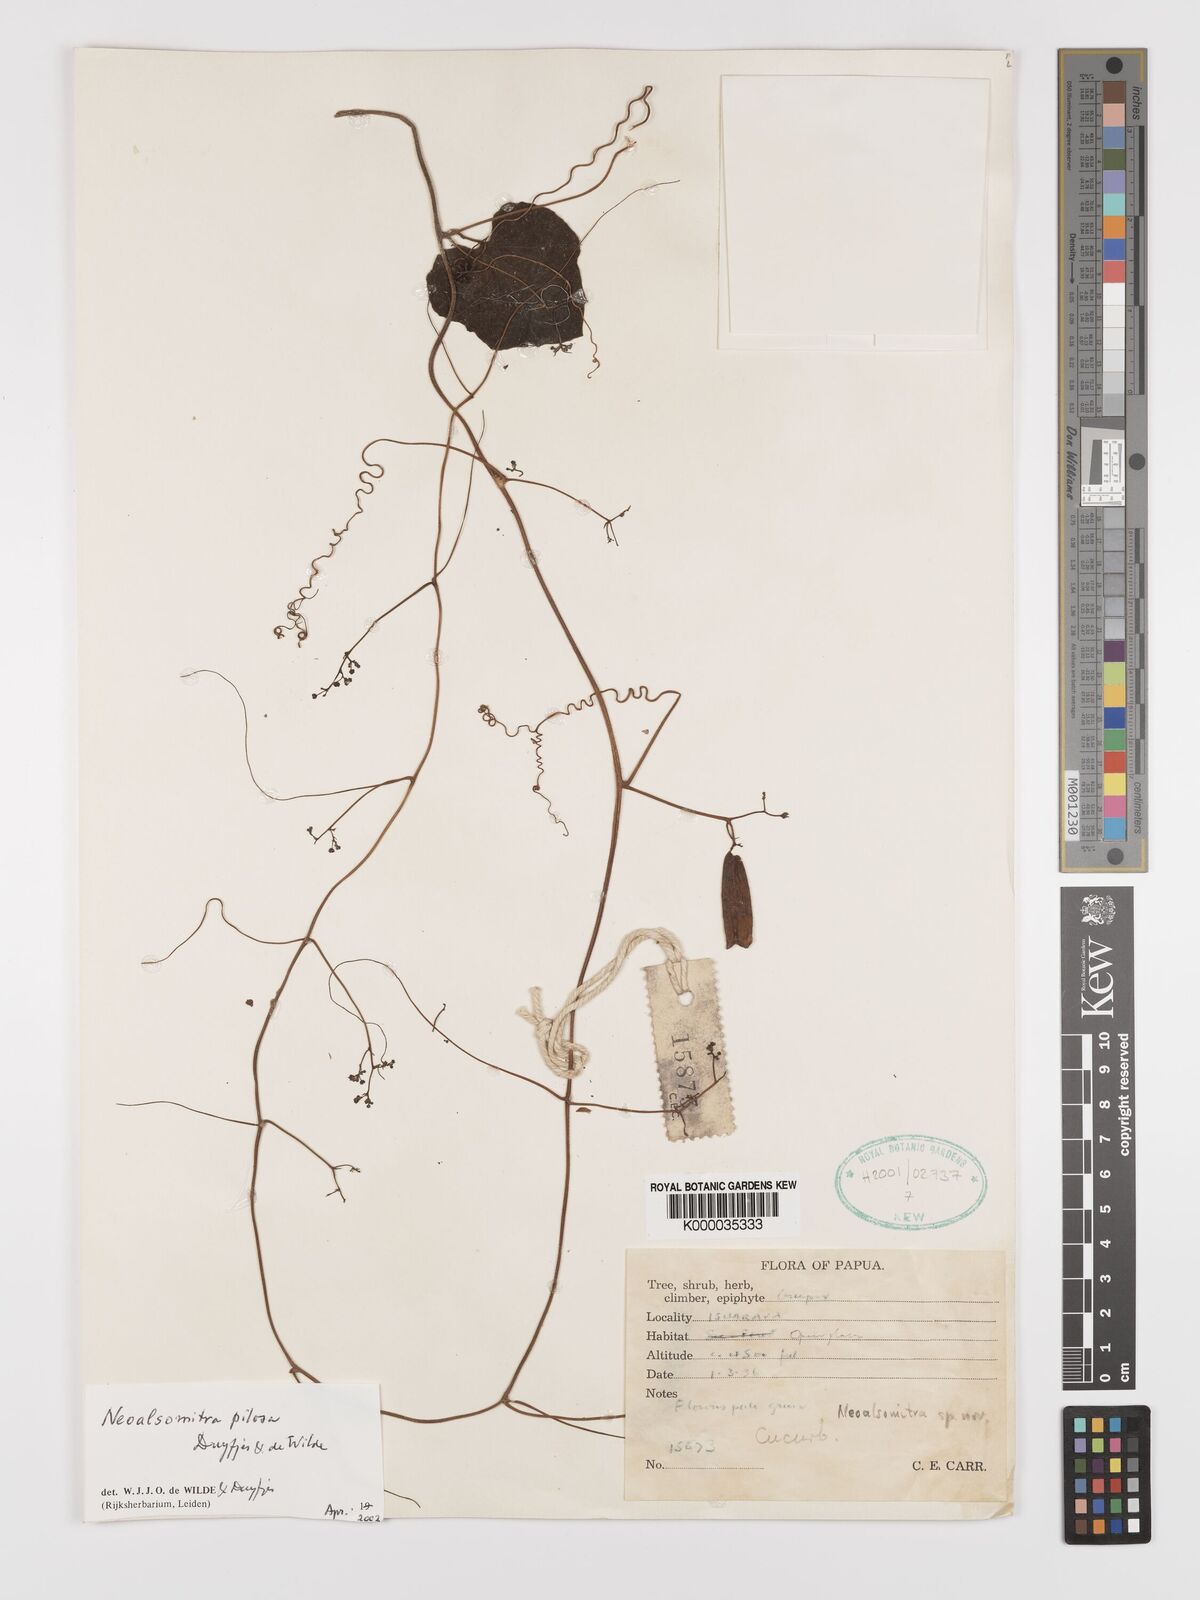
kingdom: Plantae
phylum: Tracheophyta
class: Magnoliopsida
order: Cucurbitales
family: Cucurbitaceae
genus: Neoalsomitra
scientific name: Neoalsomitra pilosa
